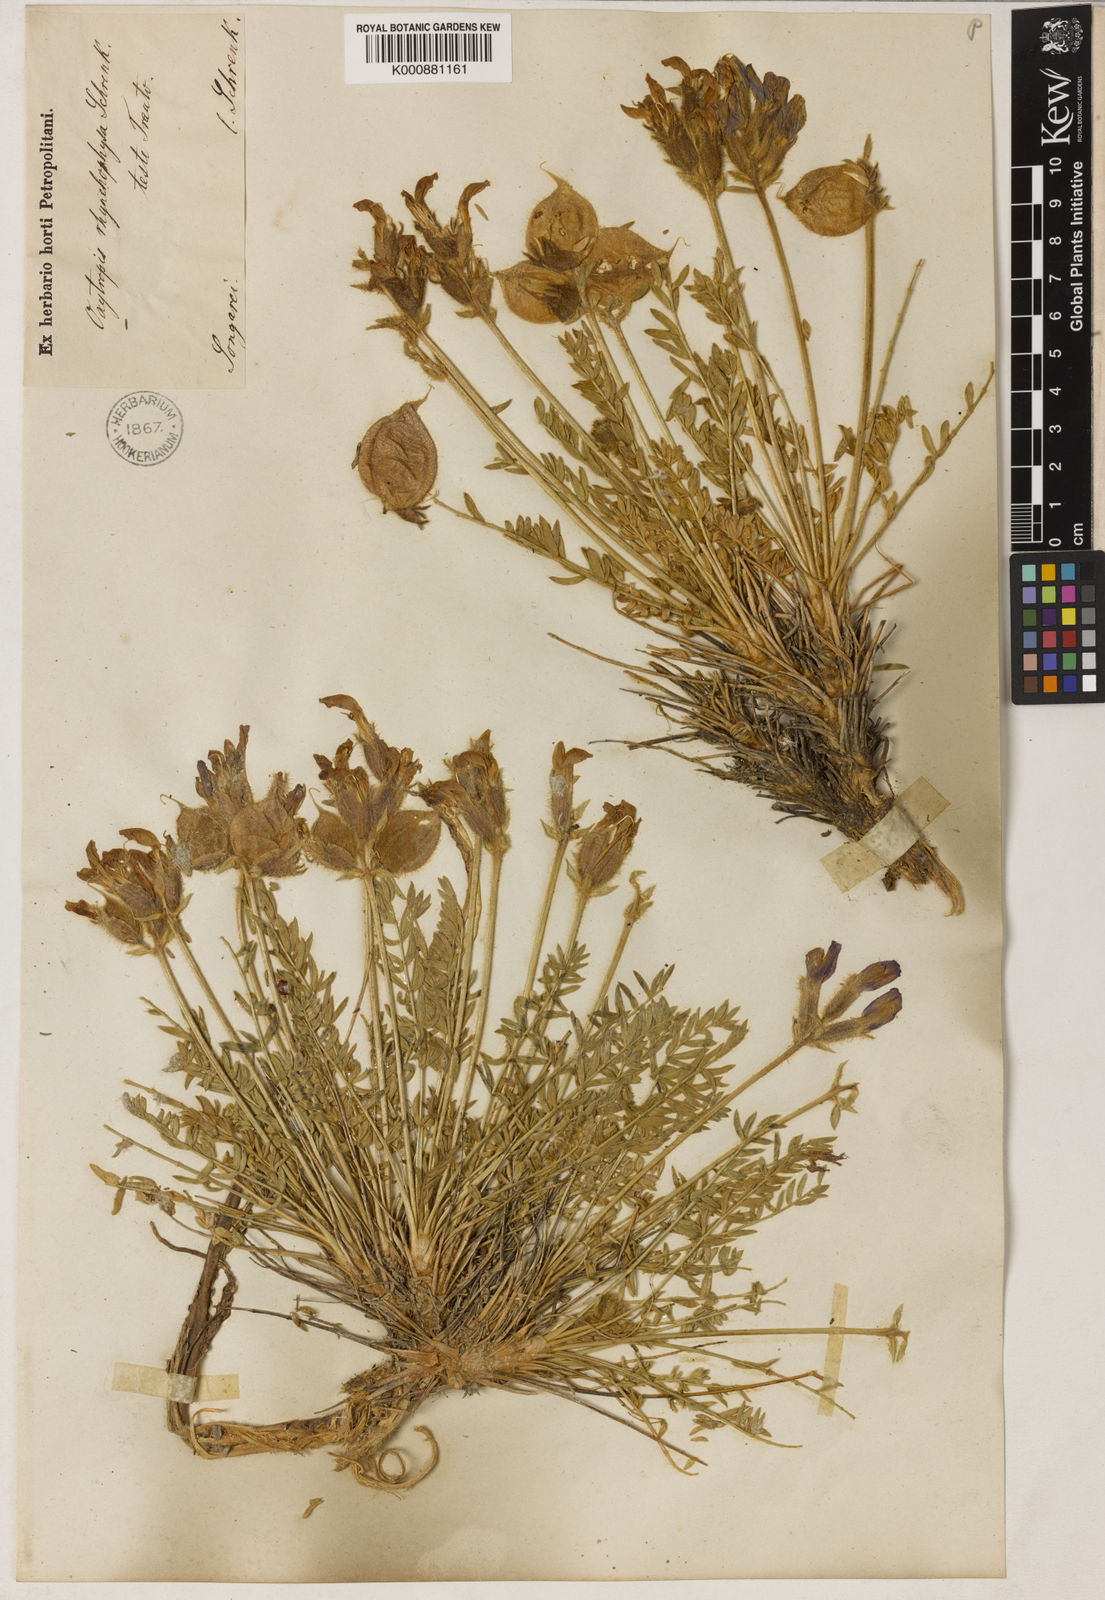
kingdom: Plantae
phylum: Tracheophyta
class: Magnoliopsida
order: Fabales
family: Fabaceae
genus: Oxytropis
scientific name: Oxytropis rhynchophysa
